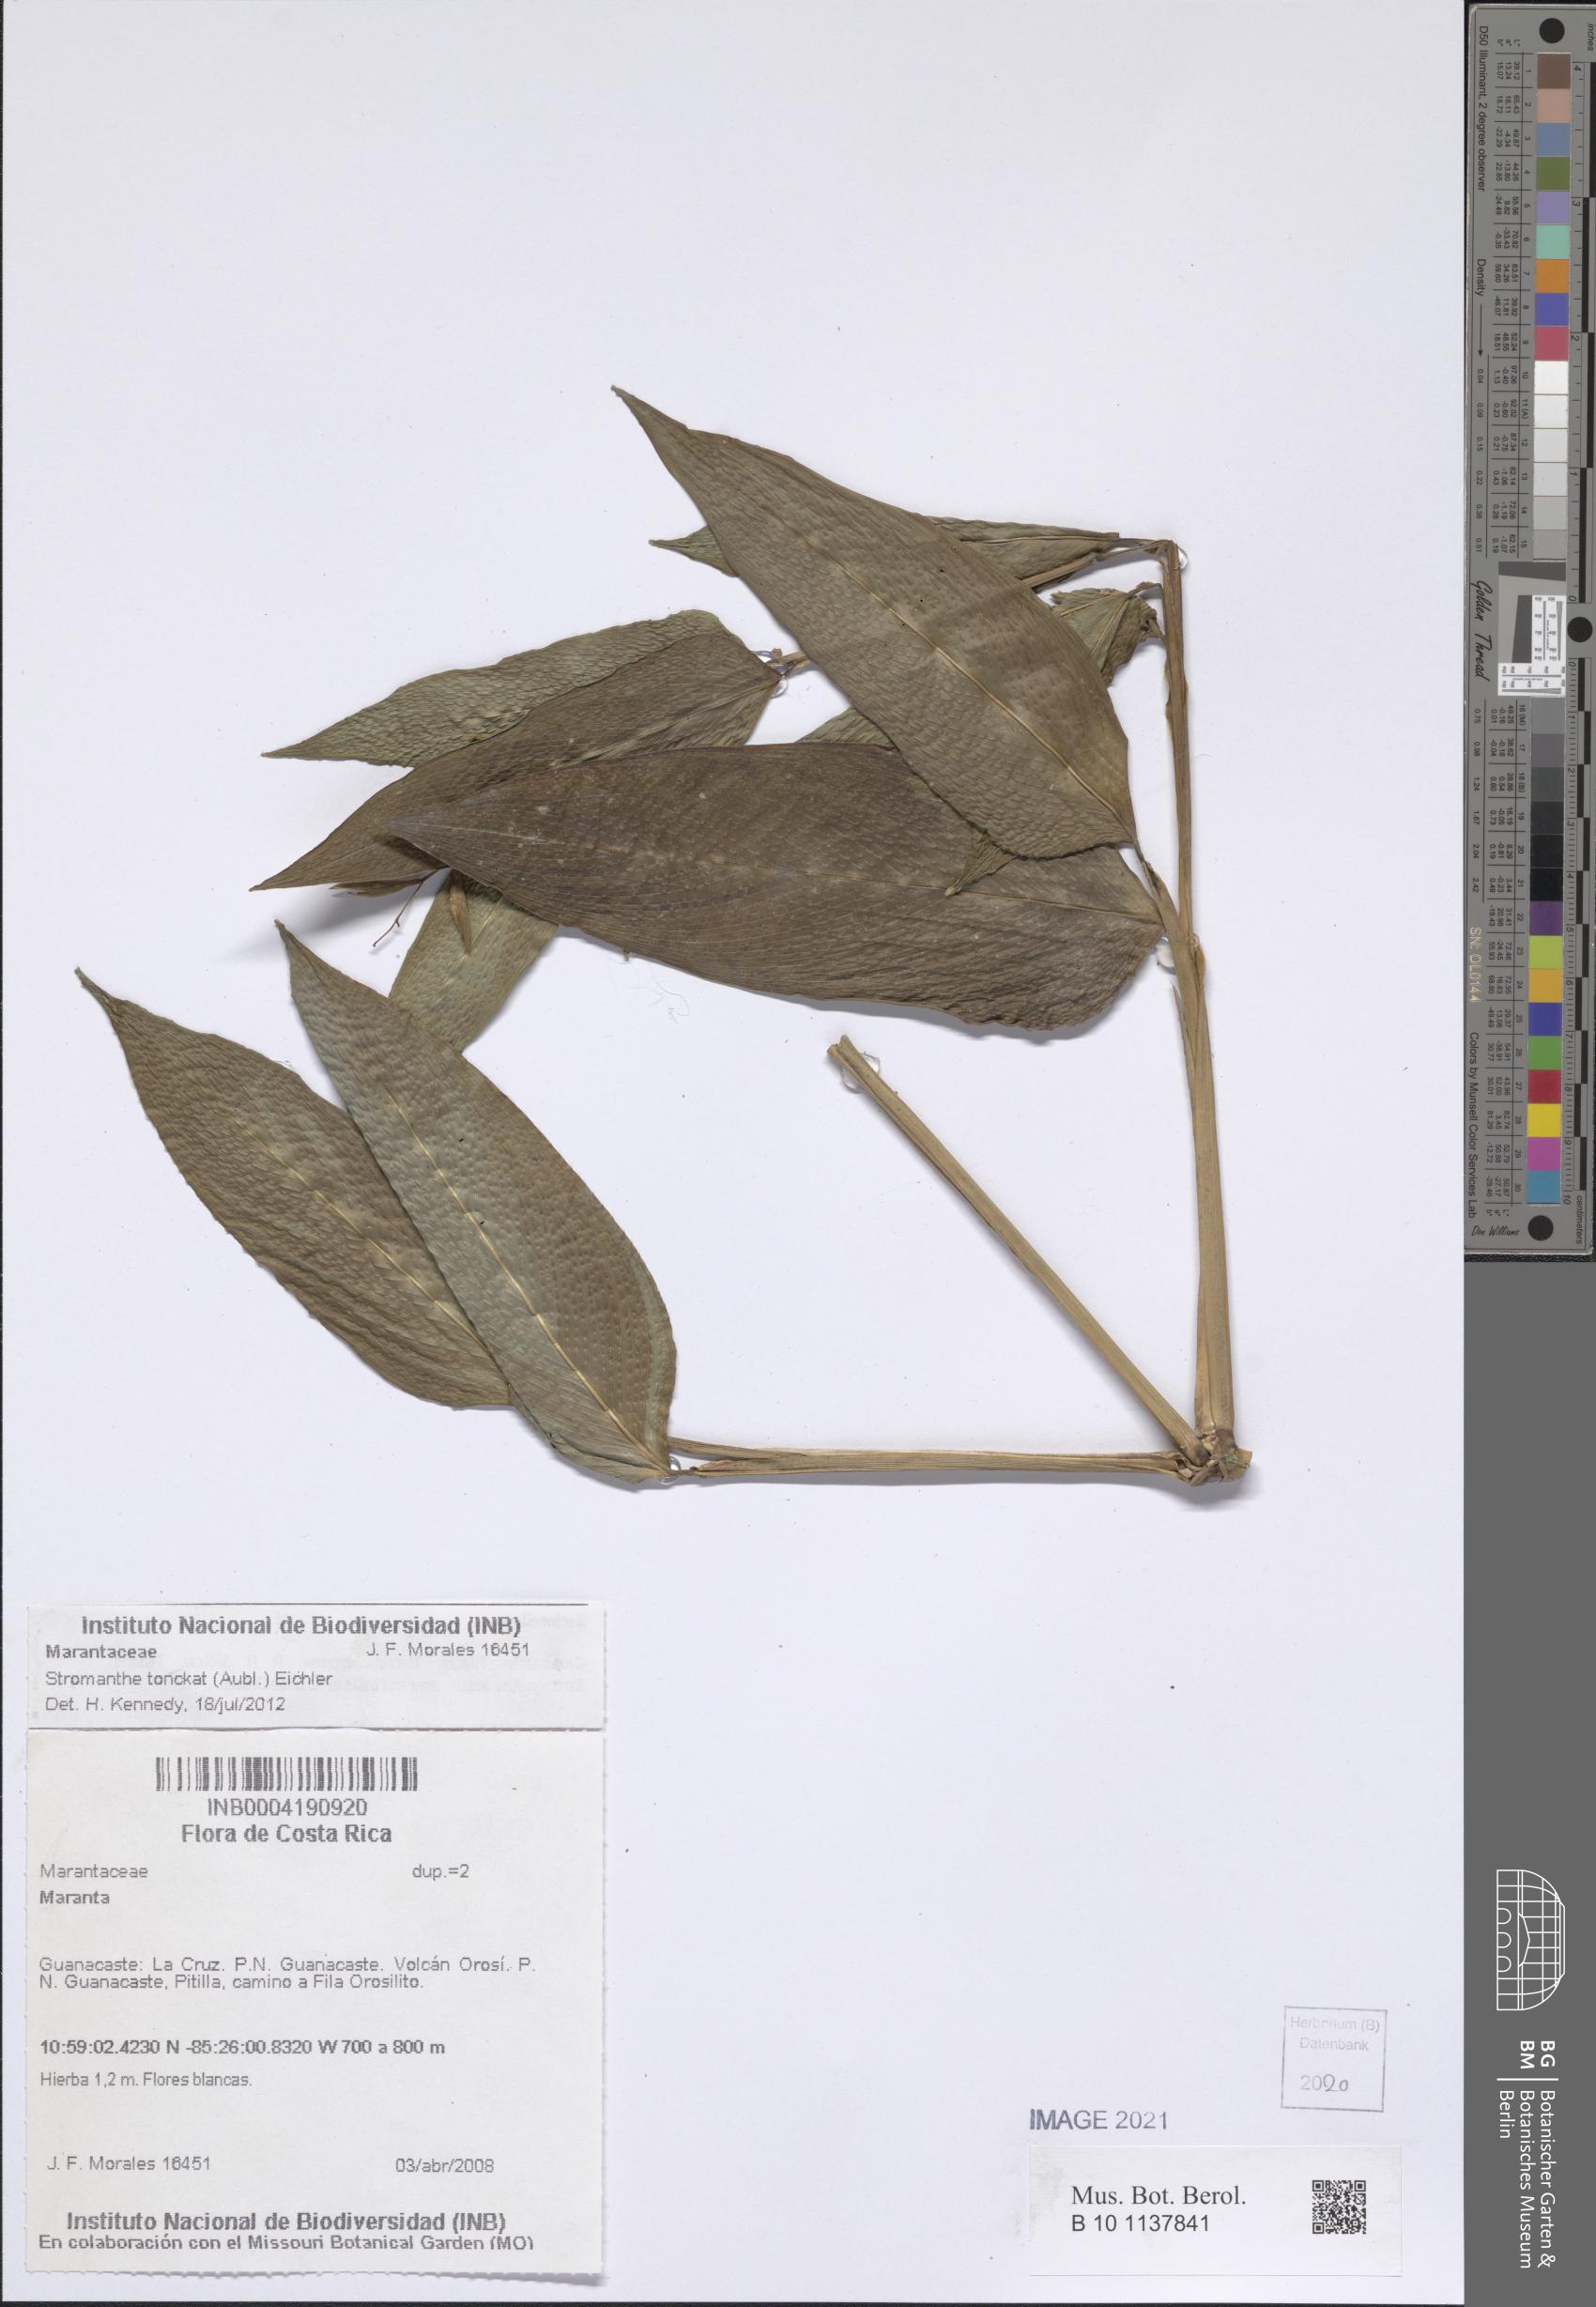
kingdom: Plantae
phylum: Tracheophyta
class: Liliopsida
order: Zingiberales
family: Marantaceae
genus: Stromanthe
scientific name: Stromanthe tonckat
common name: Stromanthe
